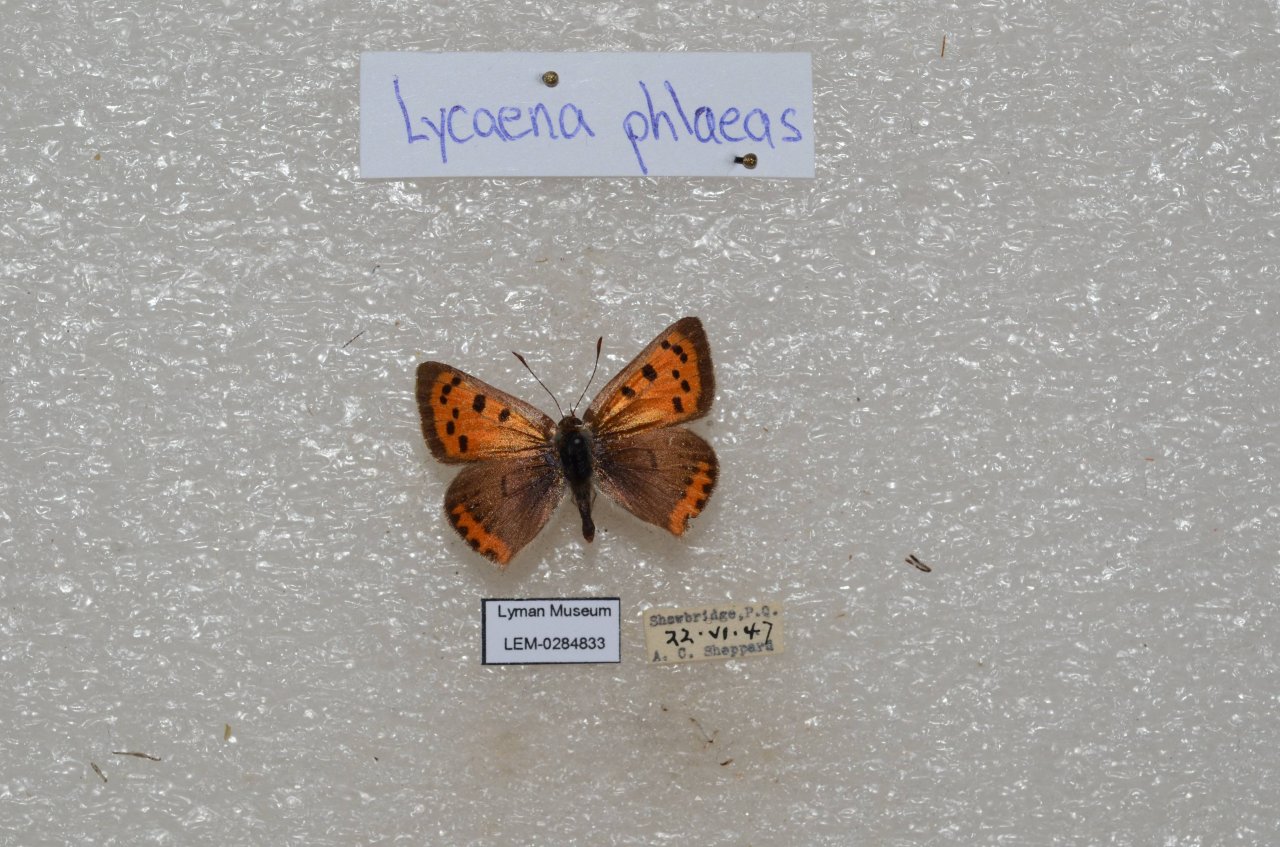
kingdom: Animalia
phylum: Arthropoda
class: Insecta
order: Lepidoptera
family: Lycaenidae
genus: Lycaena
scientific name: Lycaena phlaeas
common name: American Copper
